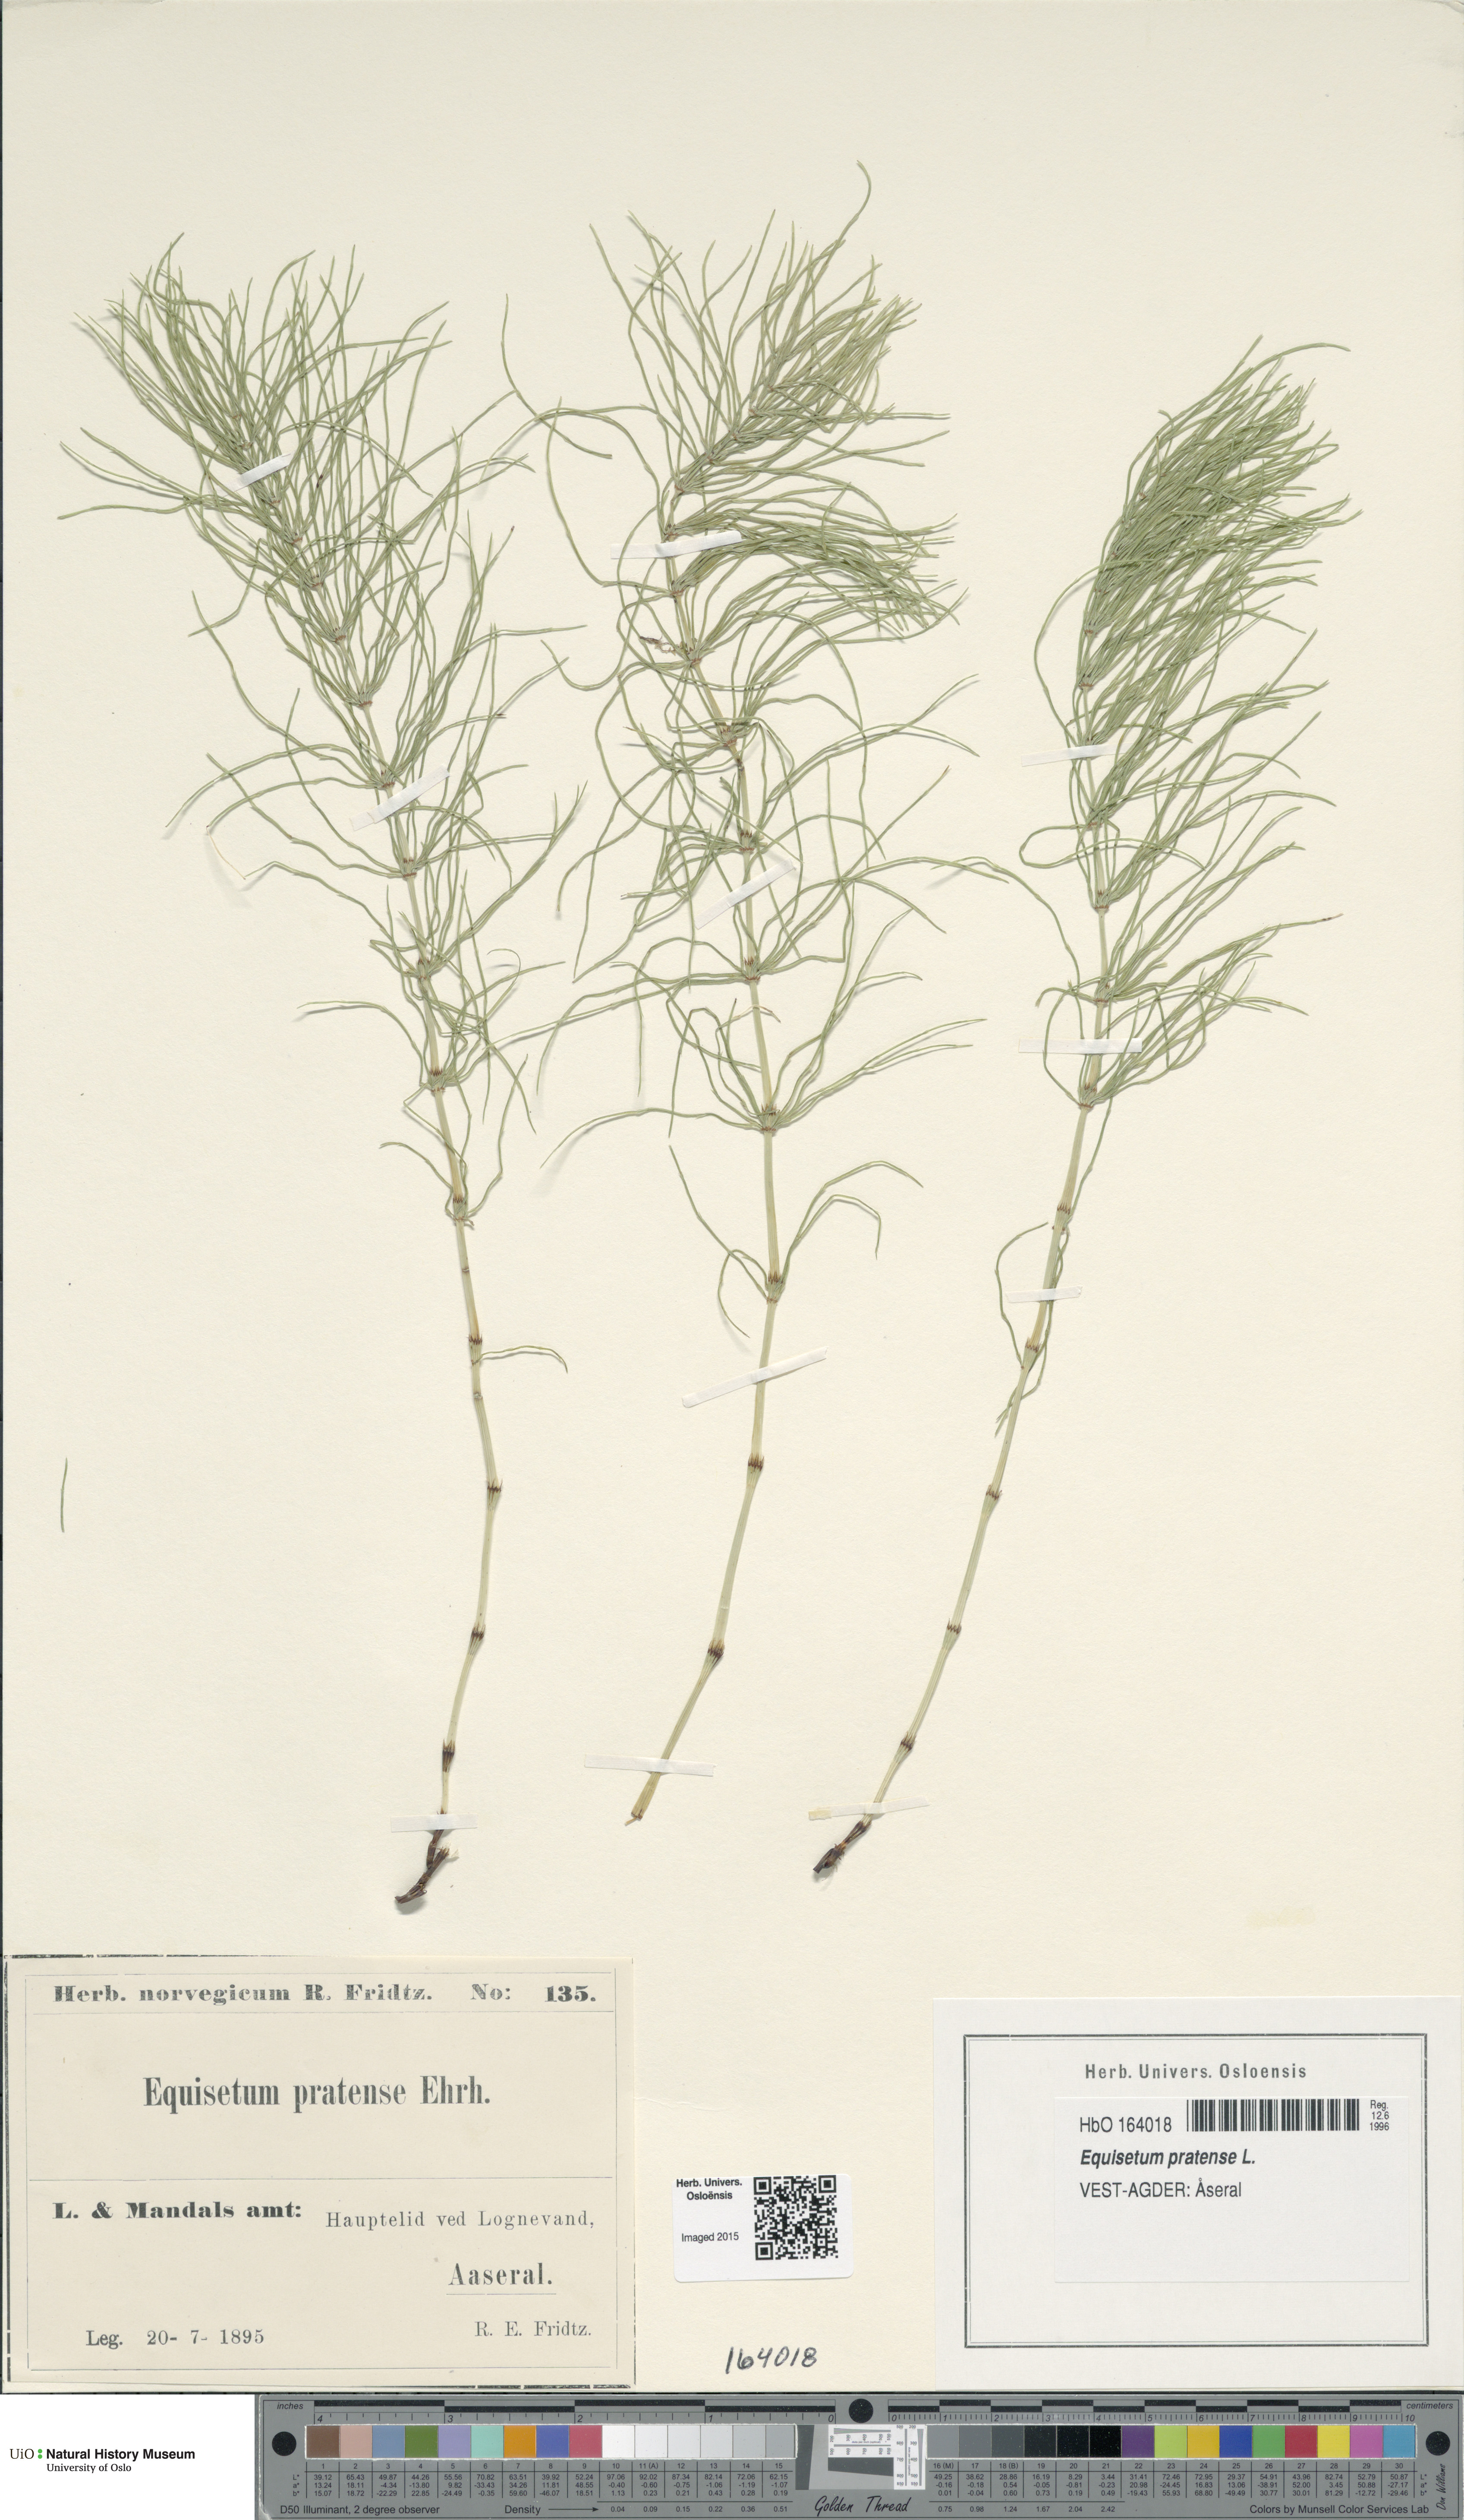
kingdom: Plantae
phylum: Tracheophyta
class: Polypodiopsida
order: Equisetales
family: Equisetaceae
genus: Equisetum
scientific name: Equisetum pratense
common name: Meadow horsetail
